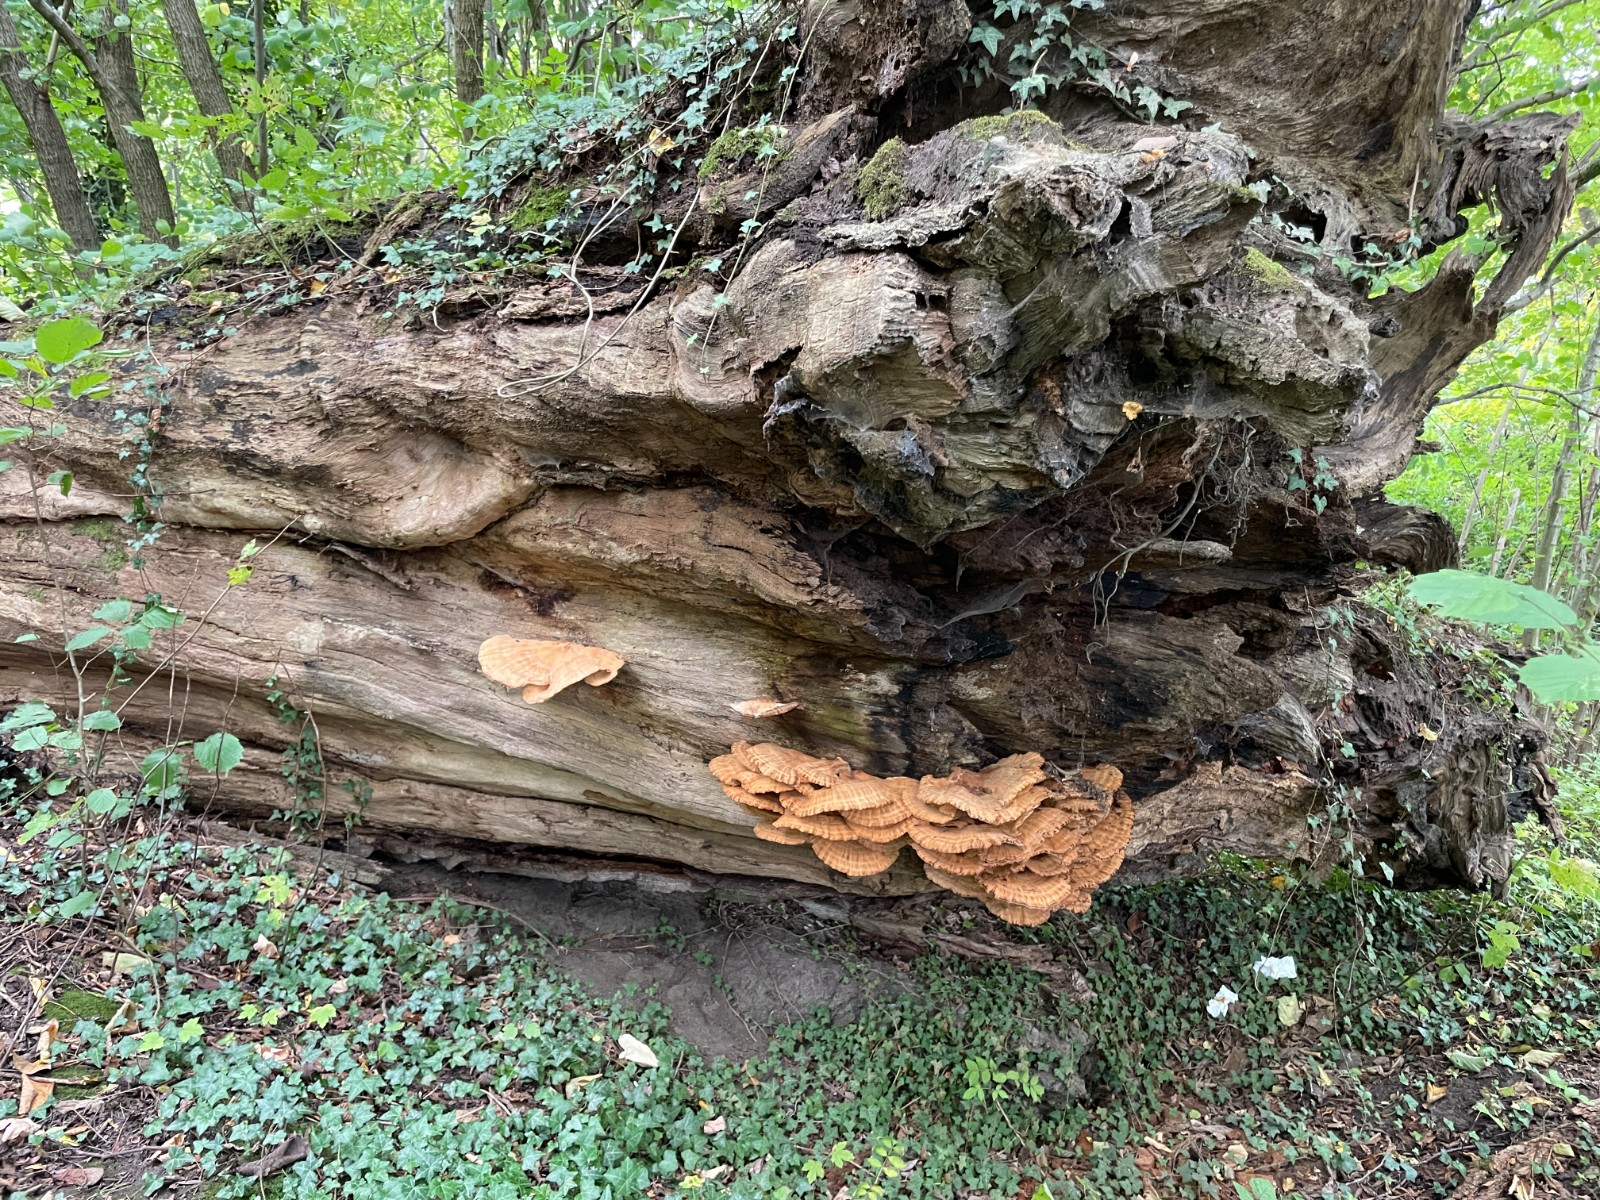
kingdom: Fungi
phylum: Basidiomycota
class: Agaricomycetes
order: Polyporales
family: Laetiporaceae
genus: Laetiporus
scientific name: Laetiporus sulphureus
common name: svovlporesvamp
